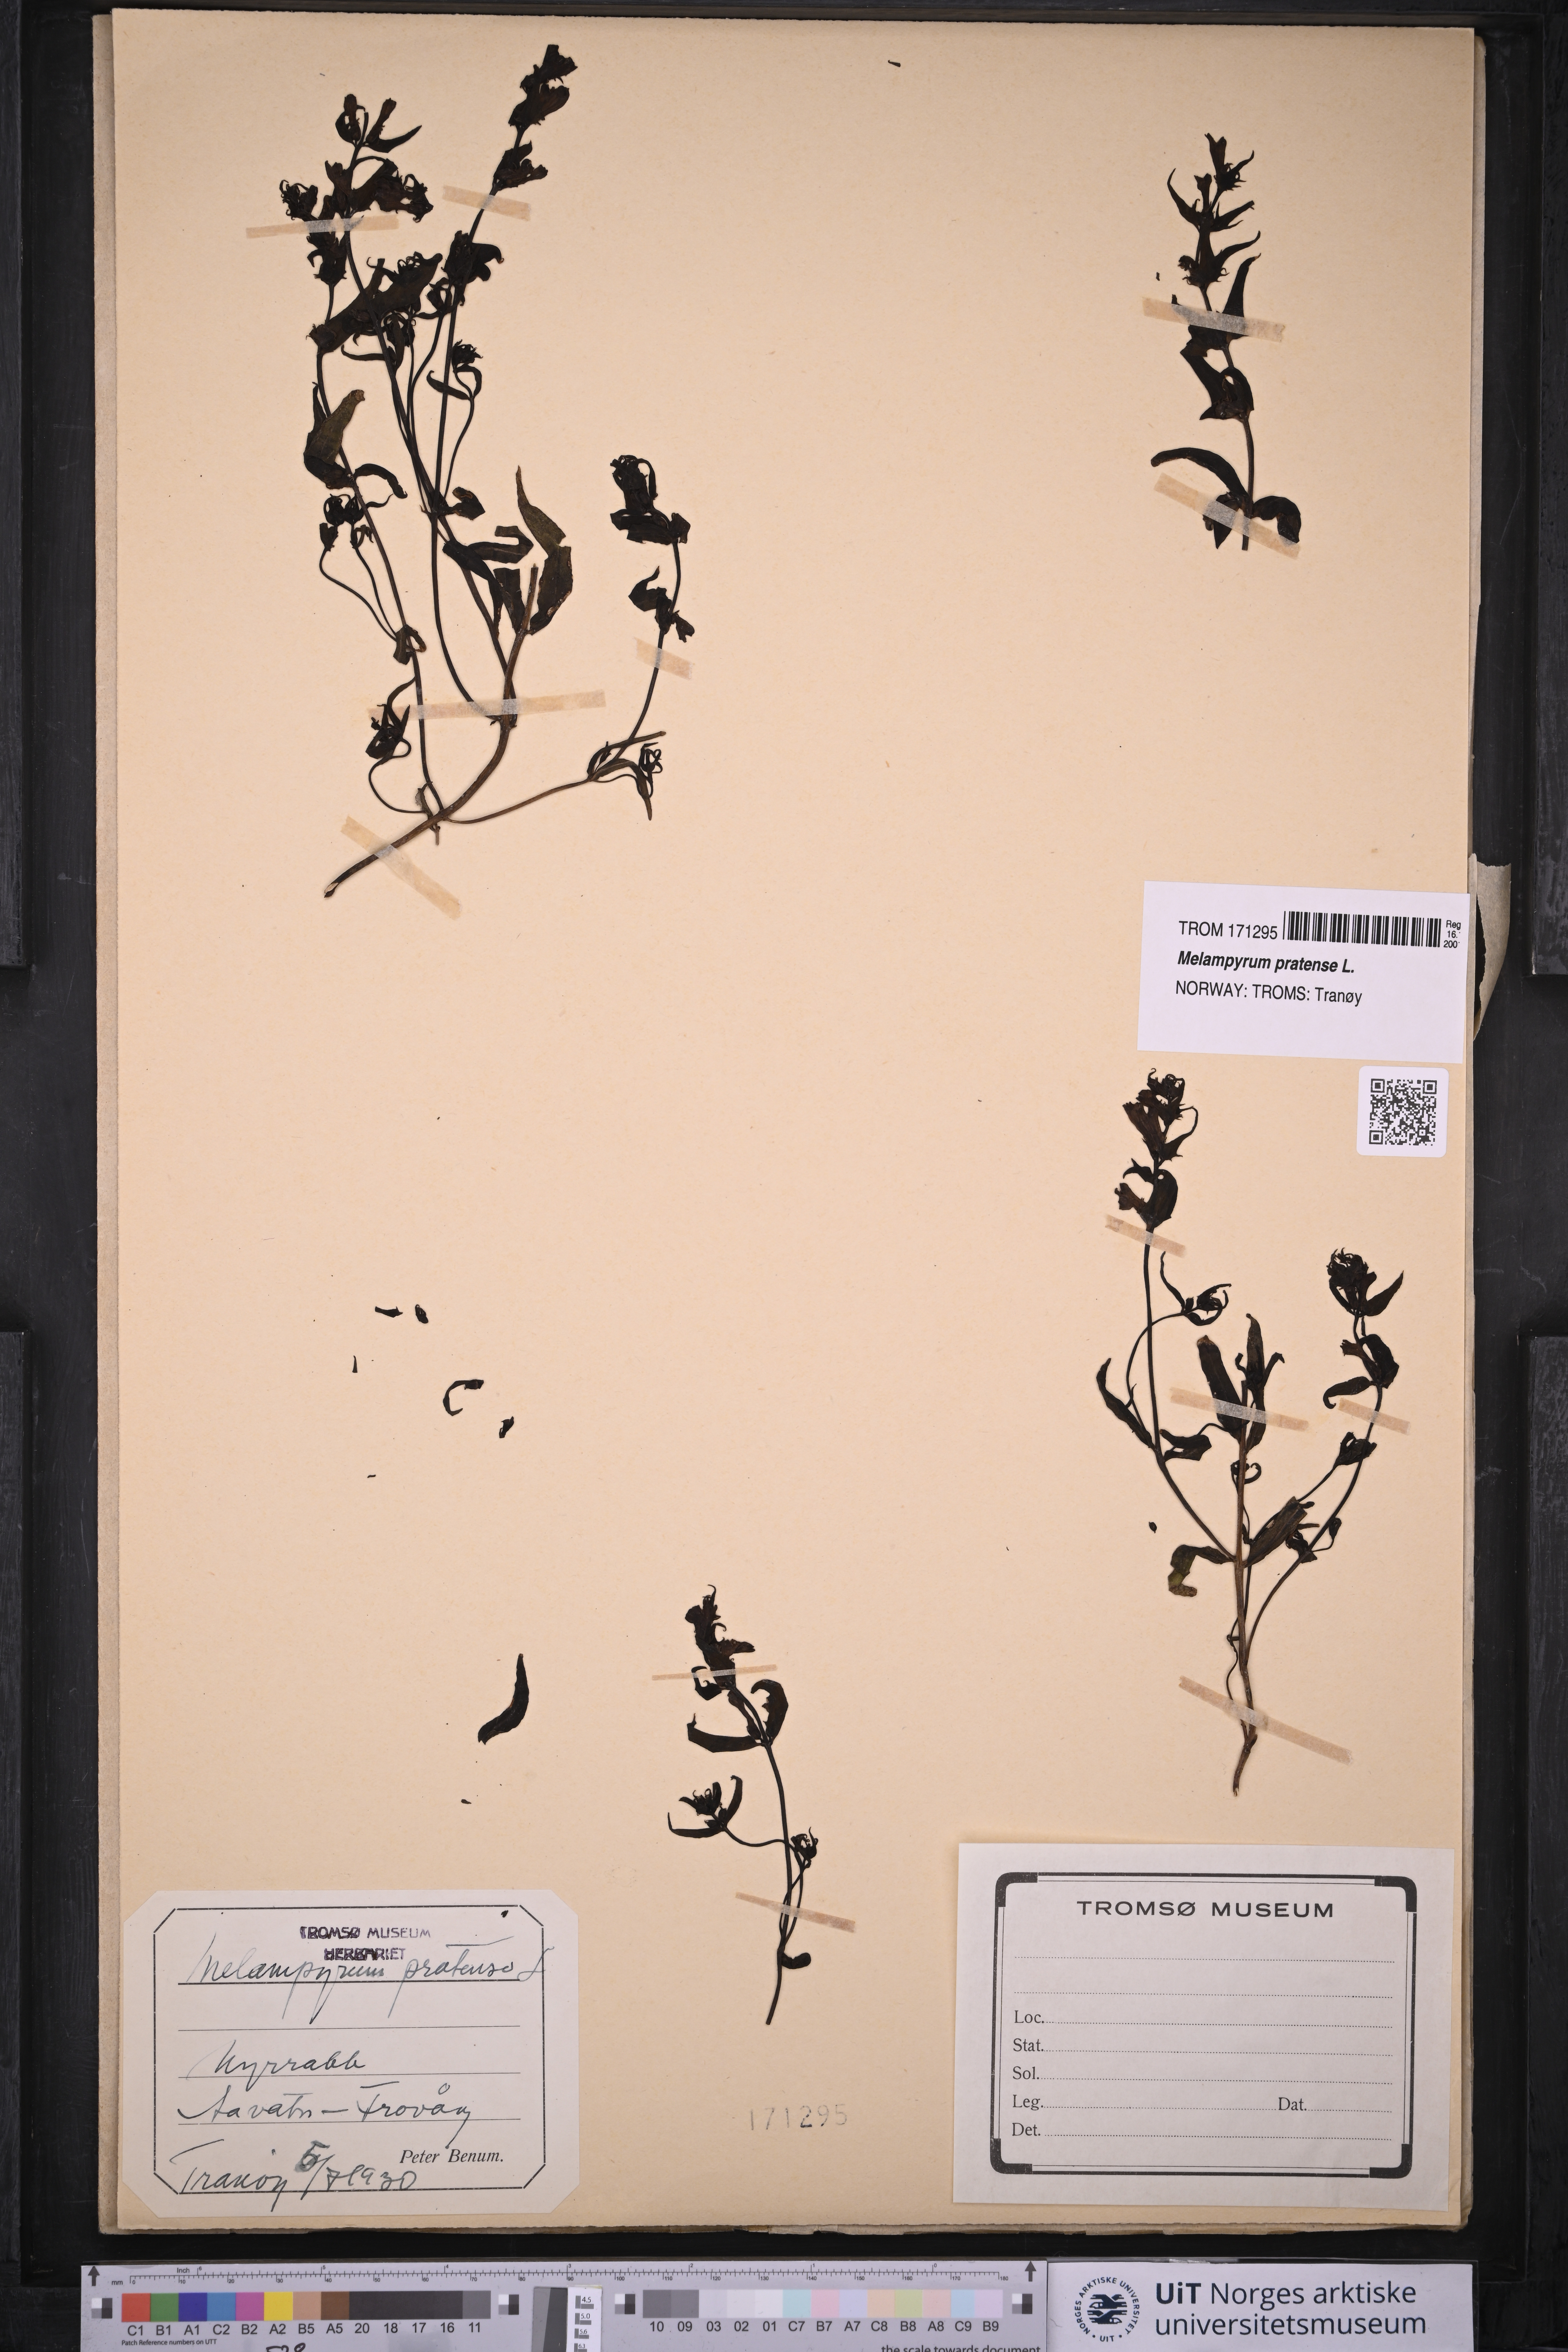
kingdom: Plantae
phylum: Tracheophyta
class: Magnoliopsida
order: Lamiales
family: Orobanchaceae
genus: Melampyrum
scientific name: Melampyrum pratense
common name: Common cow-wheat
